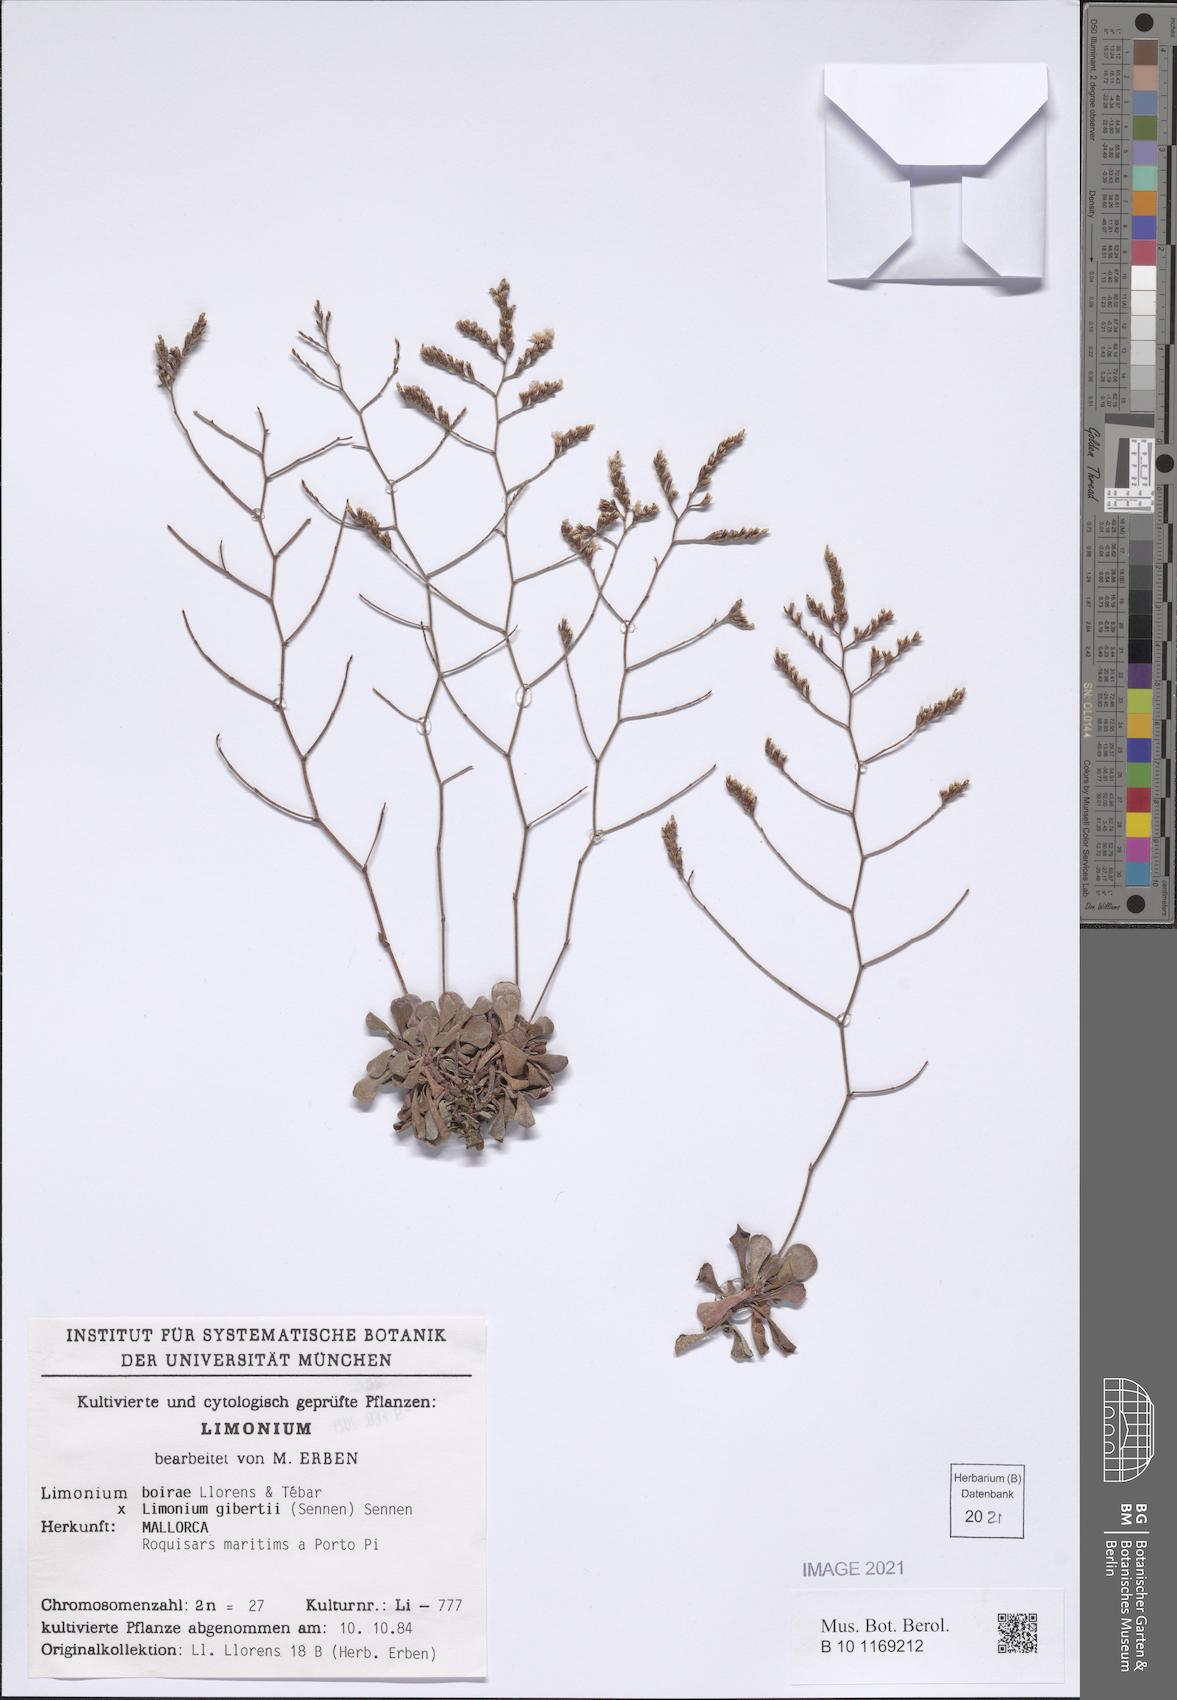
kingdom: Plantae
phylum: Tracheophyta
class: Magnoliopsida
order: Caryophyllales
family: Plumbaginaceae
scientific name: Plumbaginaceae
